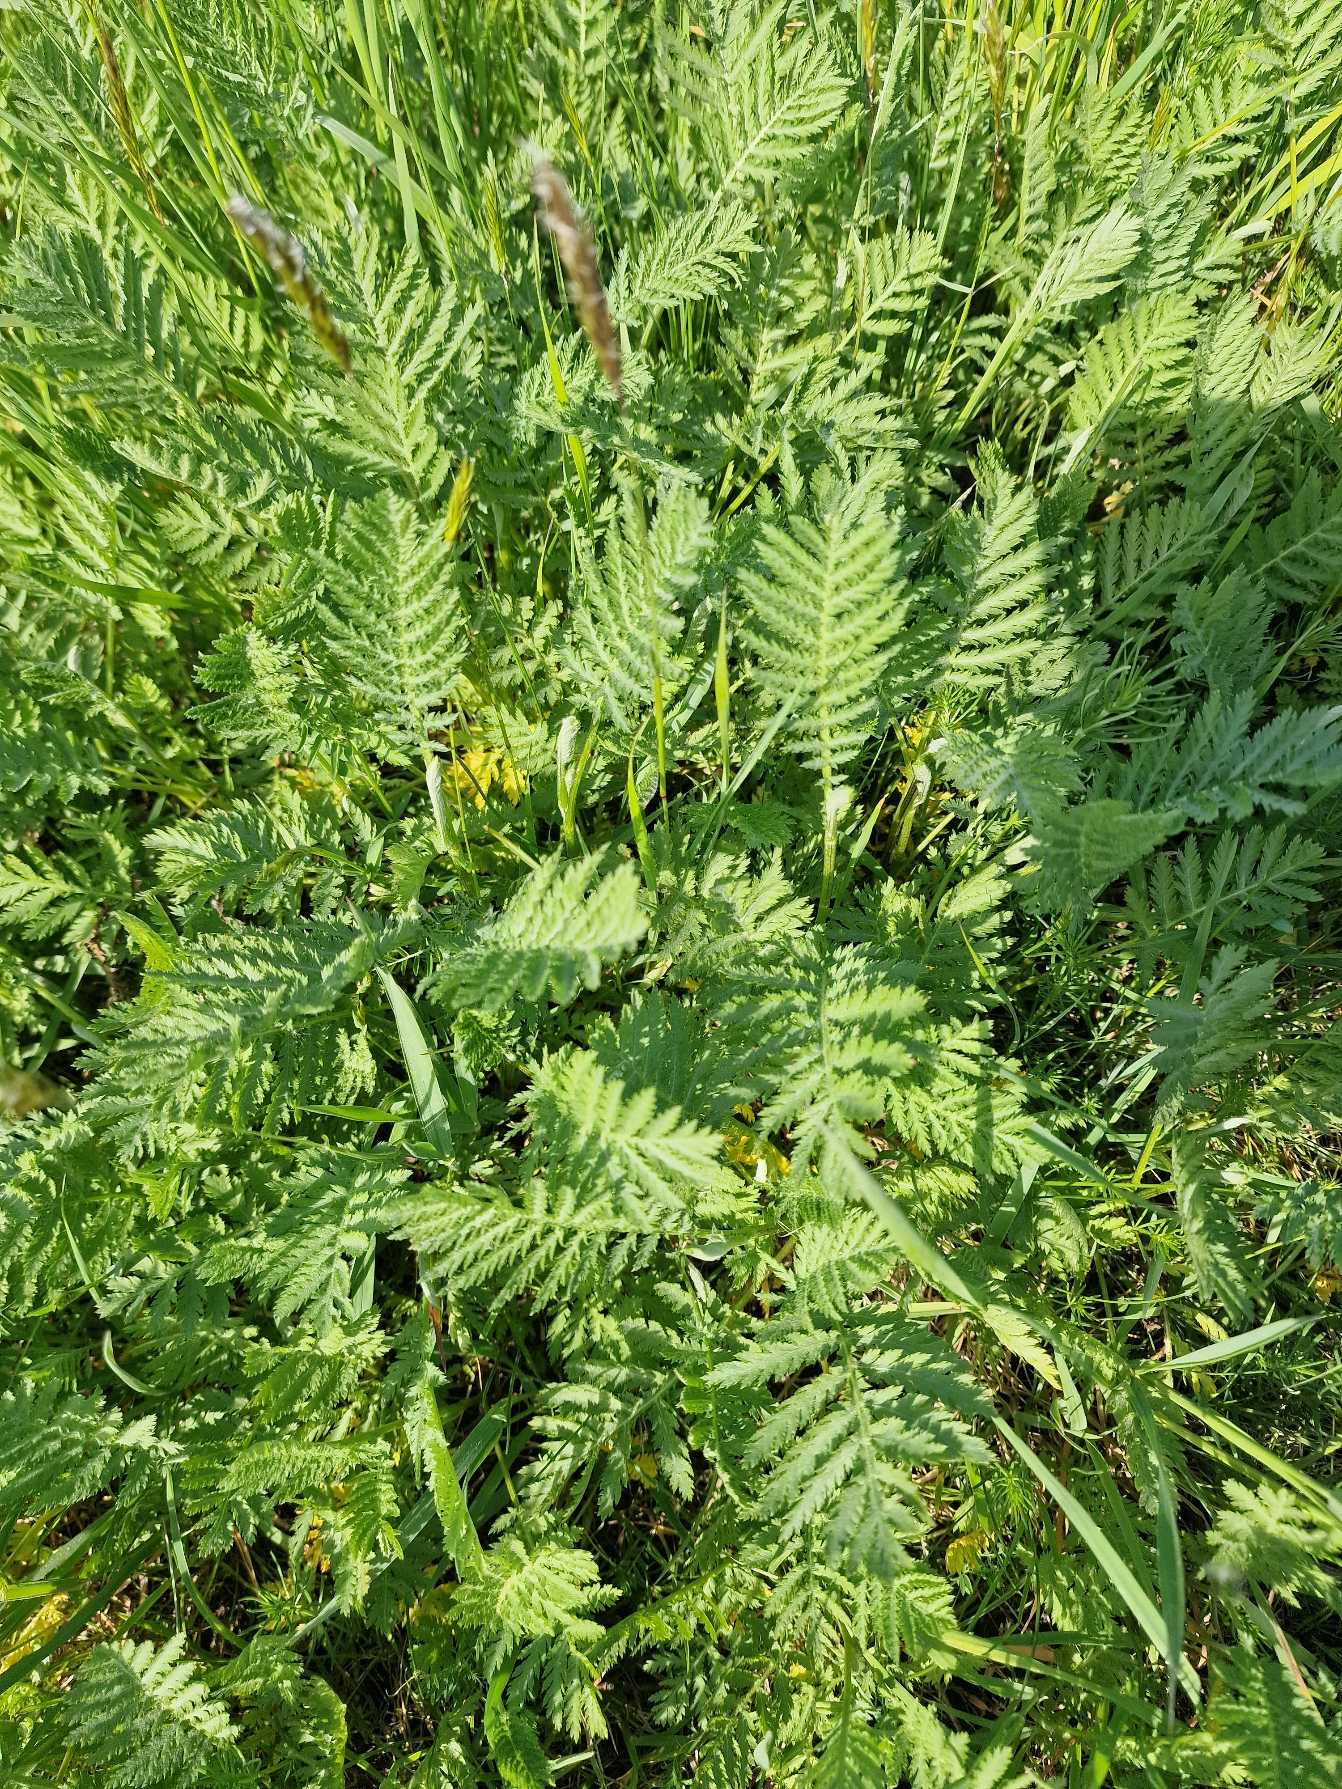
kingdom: Plantae
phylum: Tracheophyta
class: Magnoliopsida
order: Asterales
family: Asteraceae
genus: Tanacetum
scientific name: Tanacetum vulgare
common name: Rejnfan
